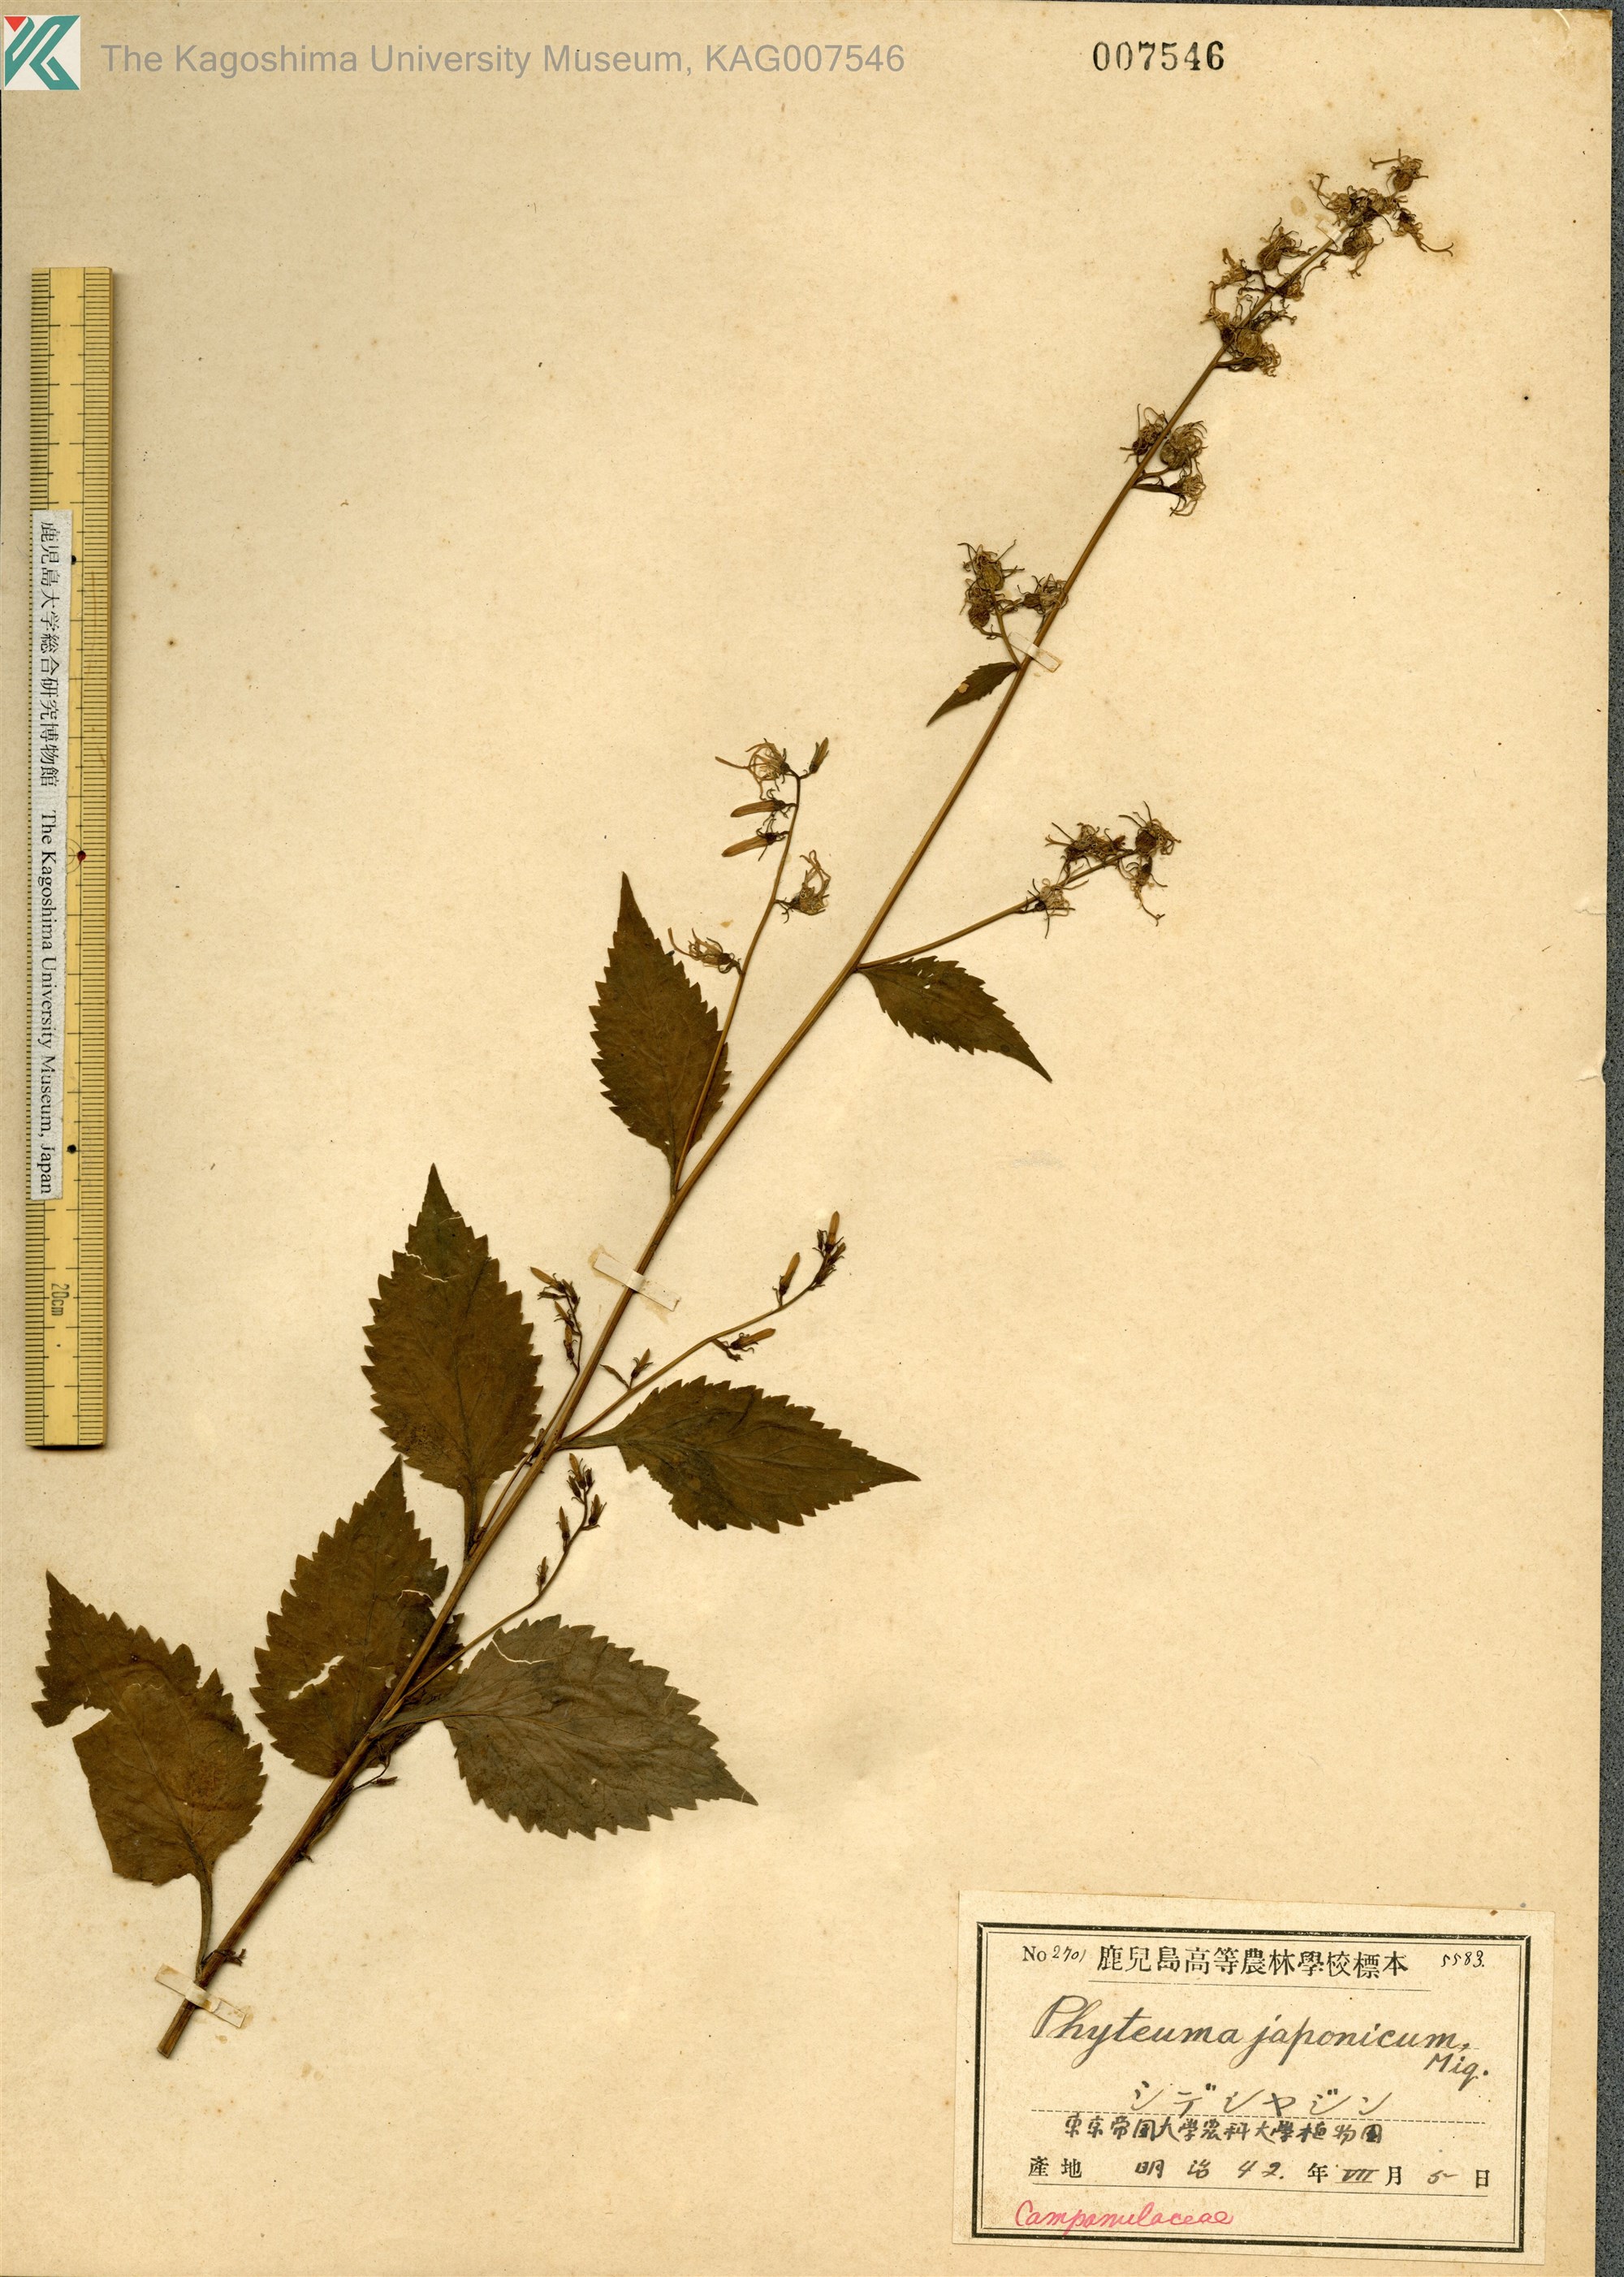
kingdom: Plantae
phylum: Tracheophyta
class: Magnoliopsida
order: Asterales
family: Campanulaceae
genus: Asyneuma
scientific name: Asyneuma japonicum
